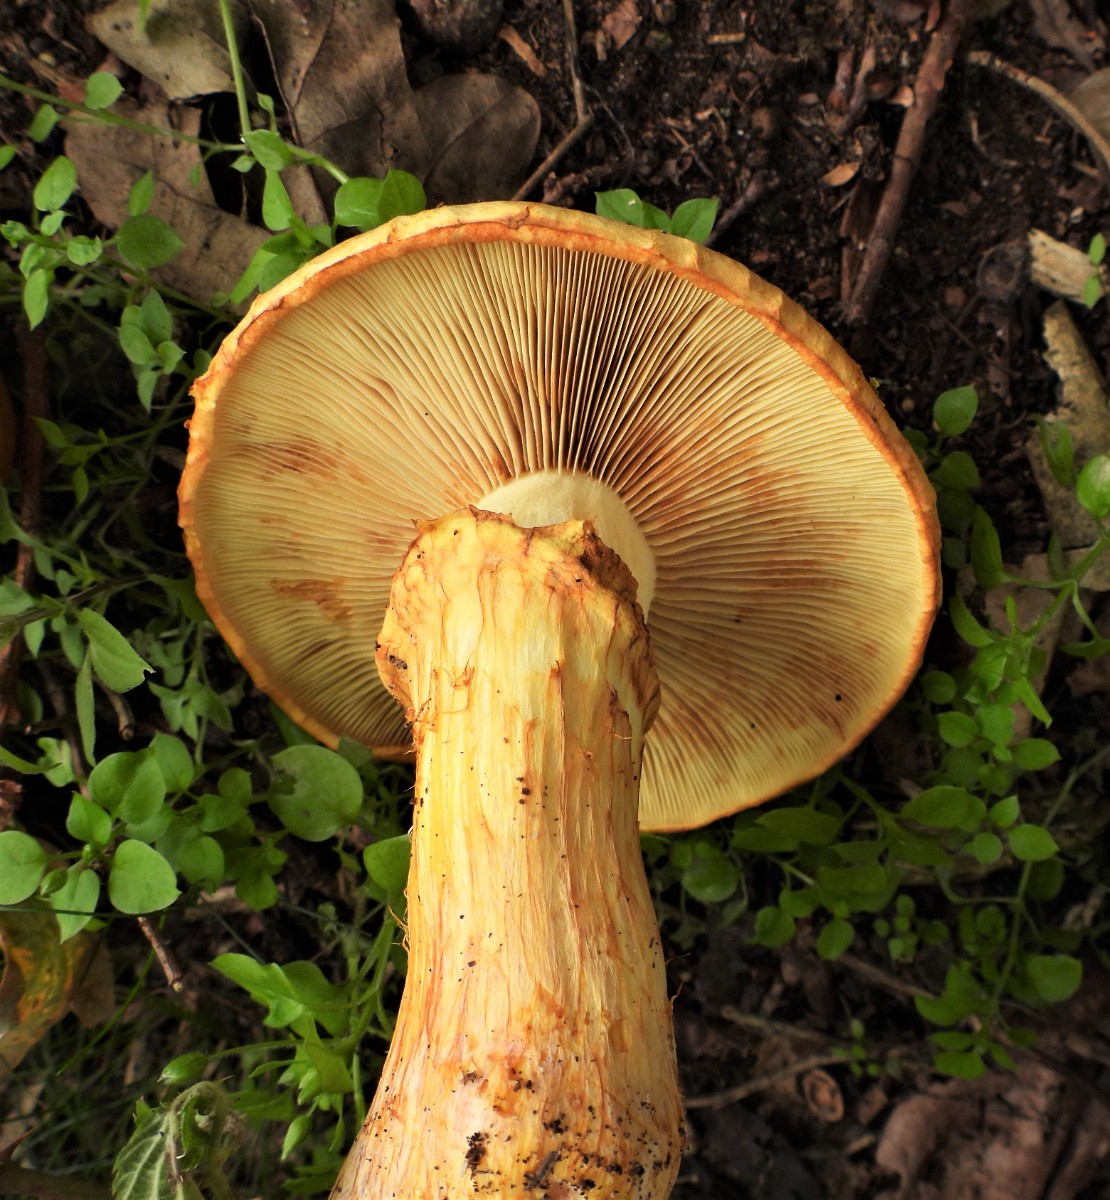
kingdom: Fungi
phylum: Basidiomycota
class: Agaricomycetes
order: Agaricales
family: Hymenogastraceae
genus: Gymnopilus
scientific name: Gymnopilus spectabilis
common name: fibret flammehat
